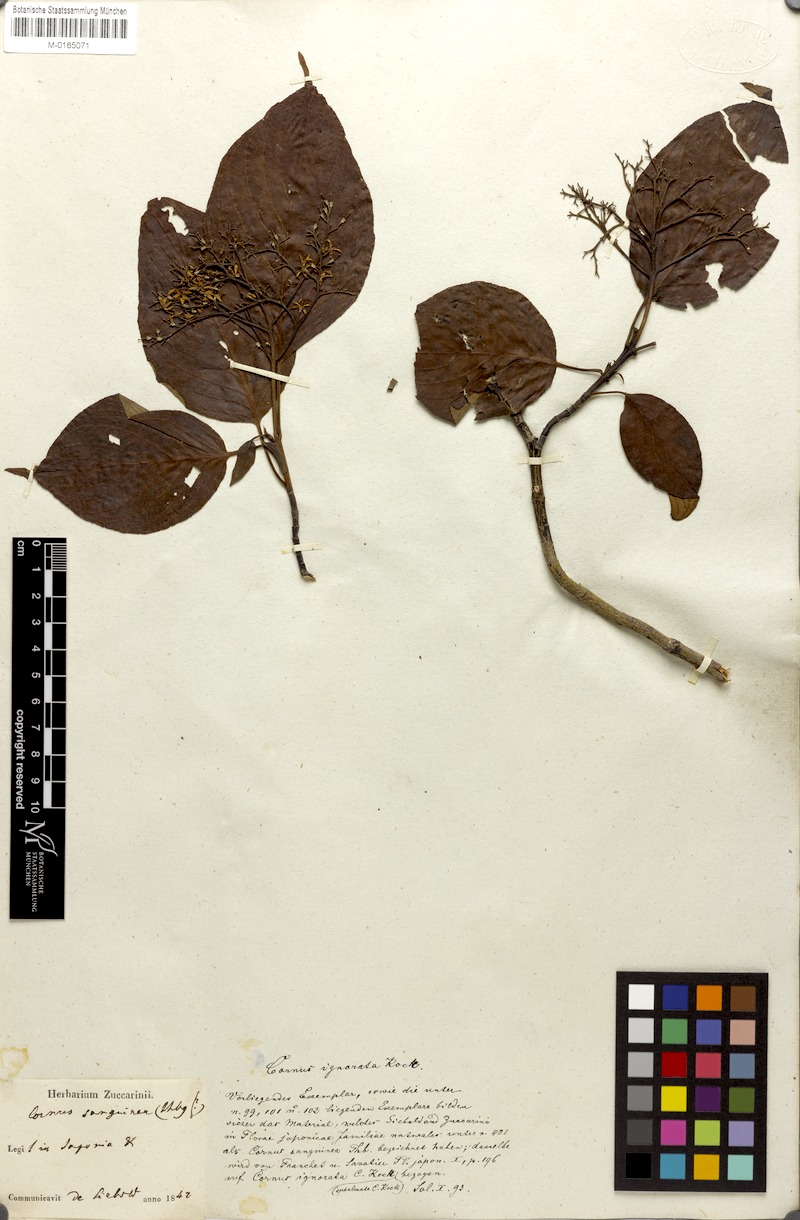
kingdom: Plantae
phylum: Tracheophyta
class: Magnoliopsida
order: Cornales
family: Cornaceae
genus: Cornus
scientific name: Cornus amomum
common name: Silky dogwood
